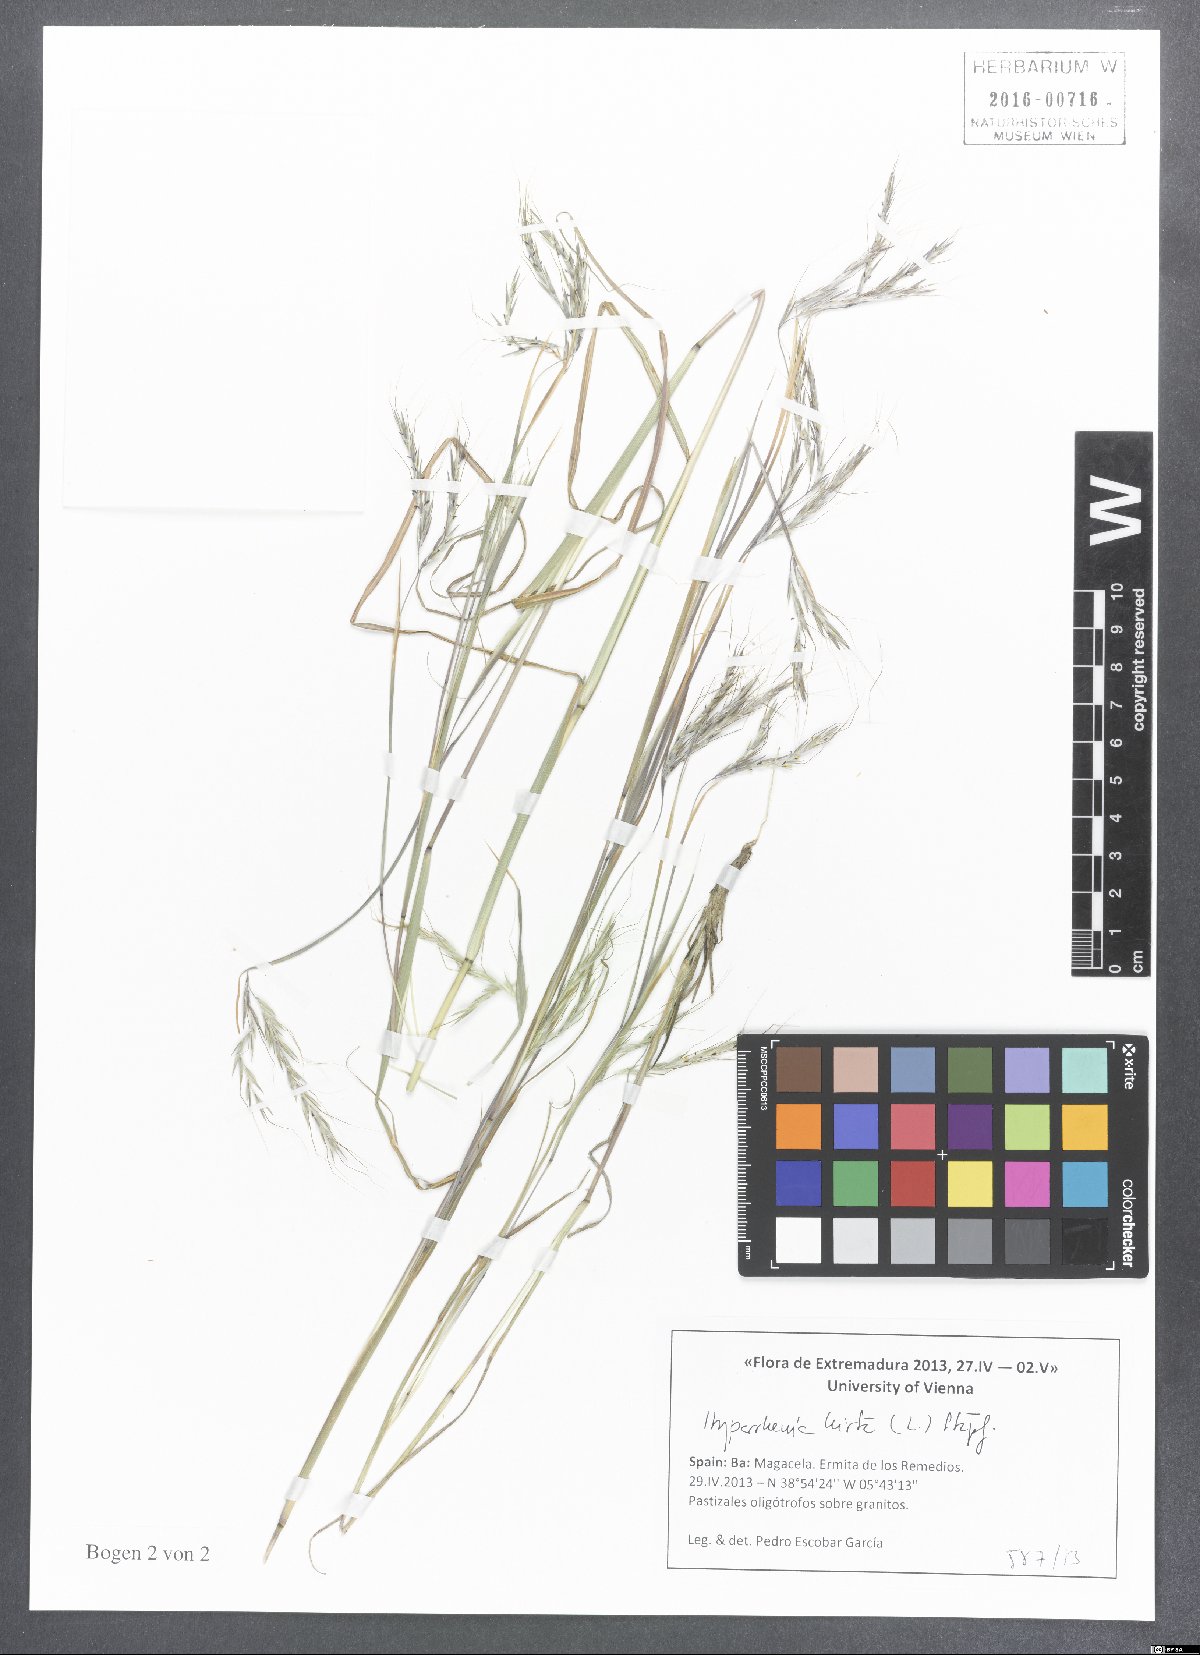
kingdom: Plantae
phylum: Tracheophyta
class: Liliopsida
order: Poales
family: Poaceae
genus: Hyparrhenia
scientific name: Hyparrhenia hirta
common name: Thatching grass
